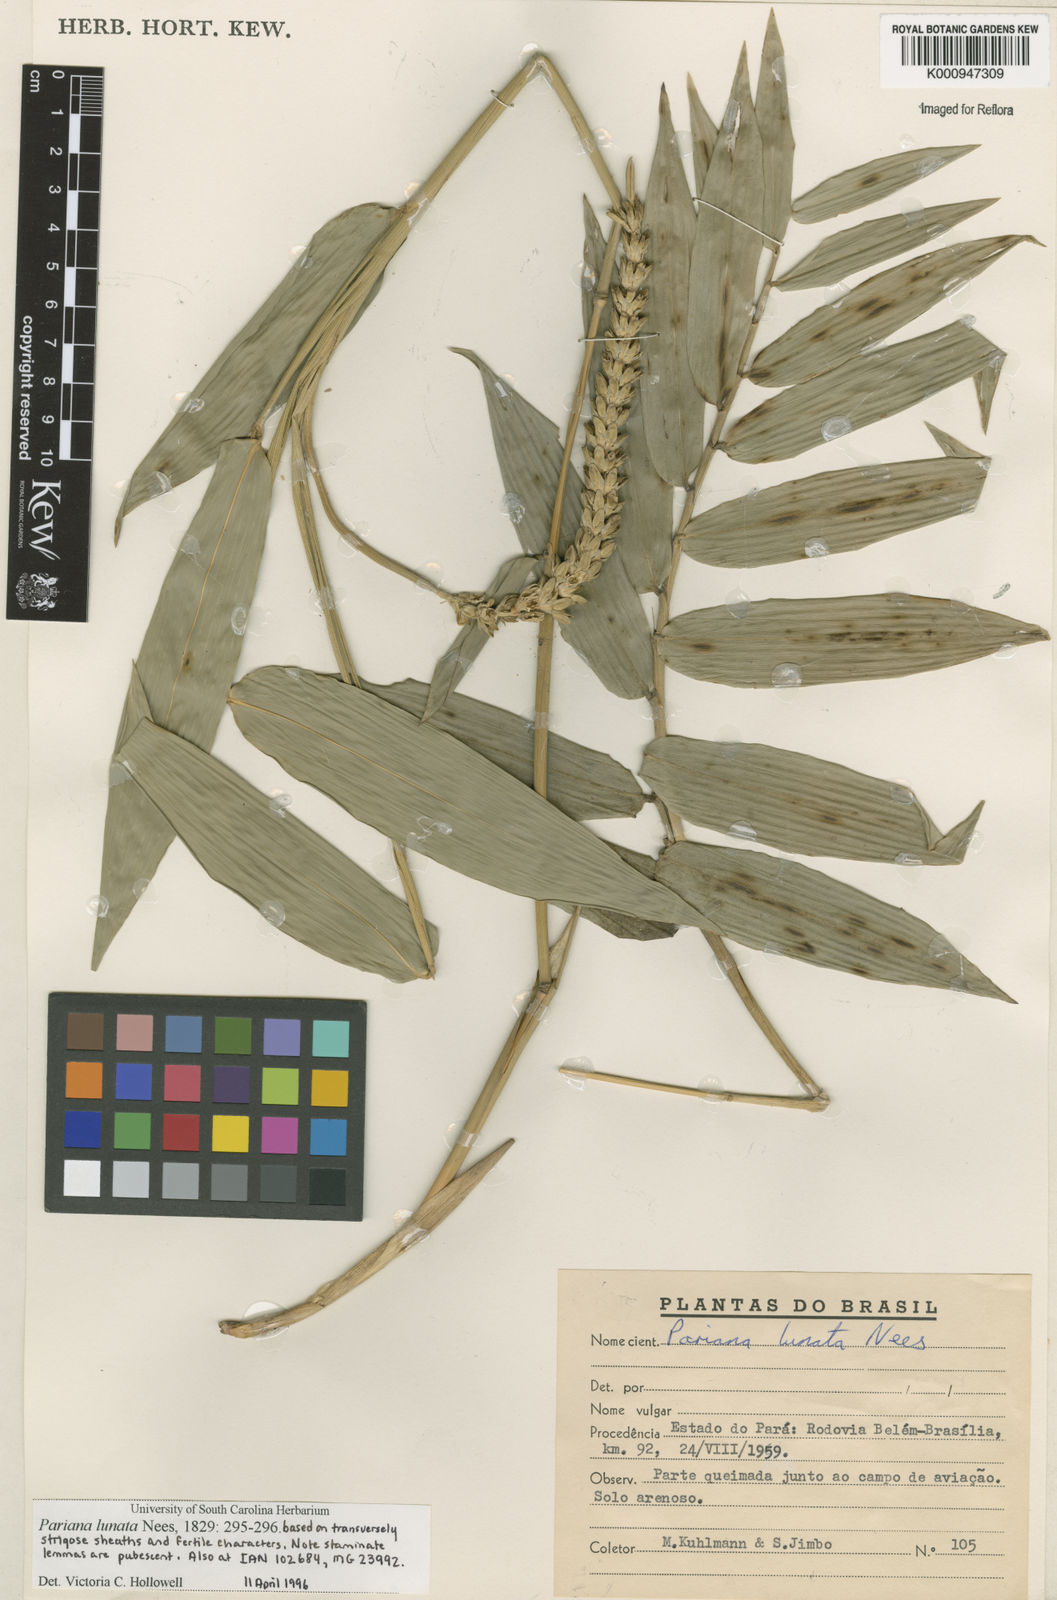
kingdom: Plantae
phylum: Tracheophyta
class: Liliopsida
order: Poales
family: Poaceae
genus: Pariana
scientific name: Pariana lunata
